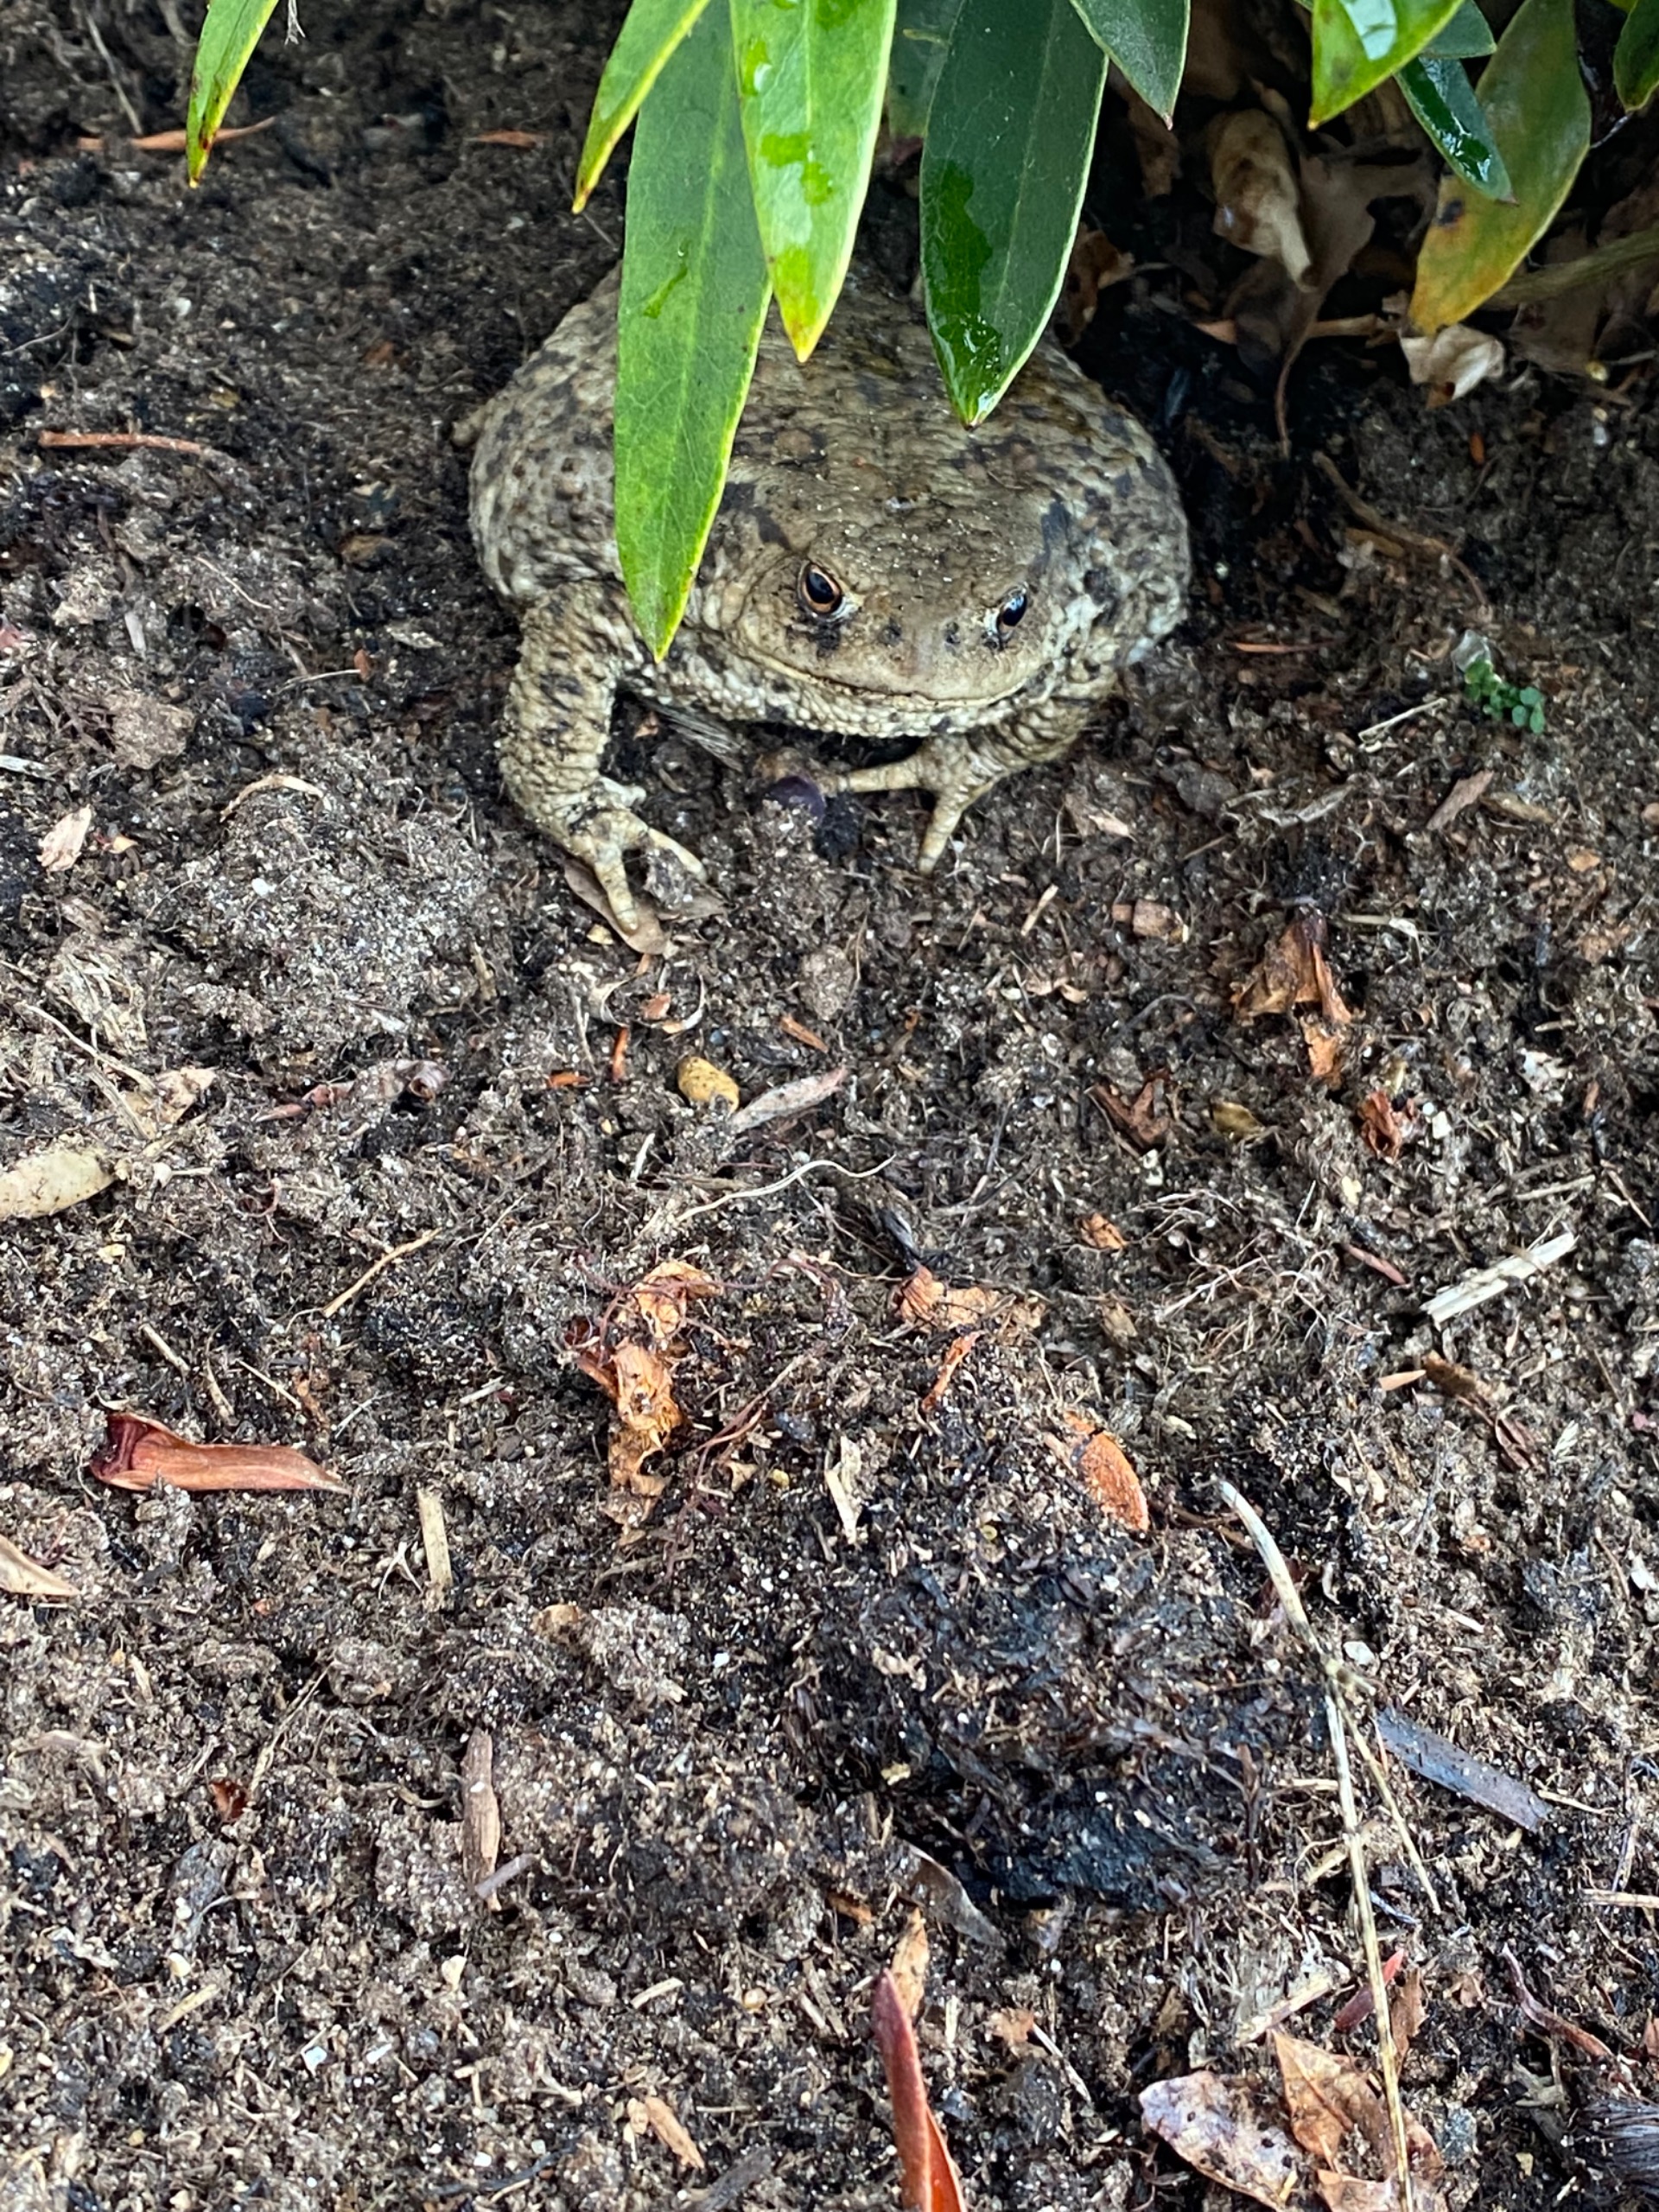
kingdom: Animalia
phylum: Chordata
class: Amphibia
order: Anura
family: Bufonidae
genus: Bufo
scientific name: Bufo bufo
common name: Skrubtudse
